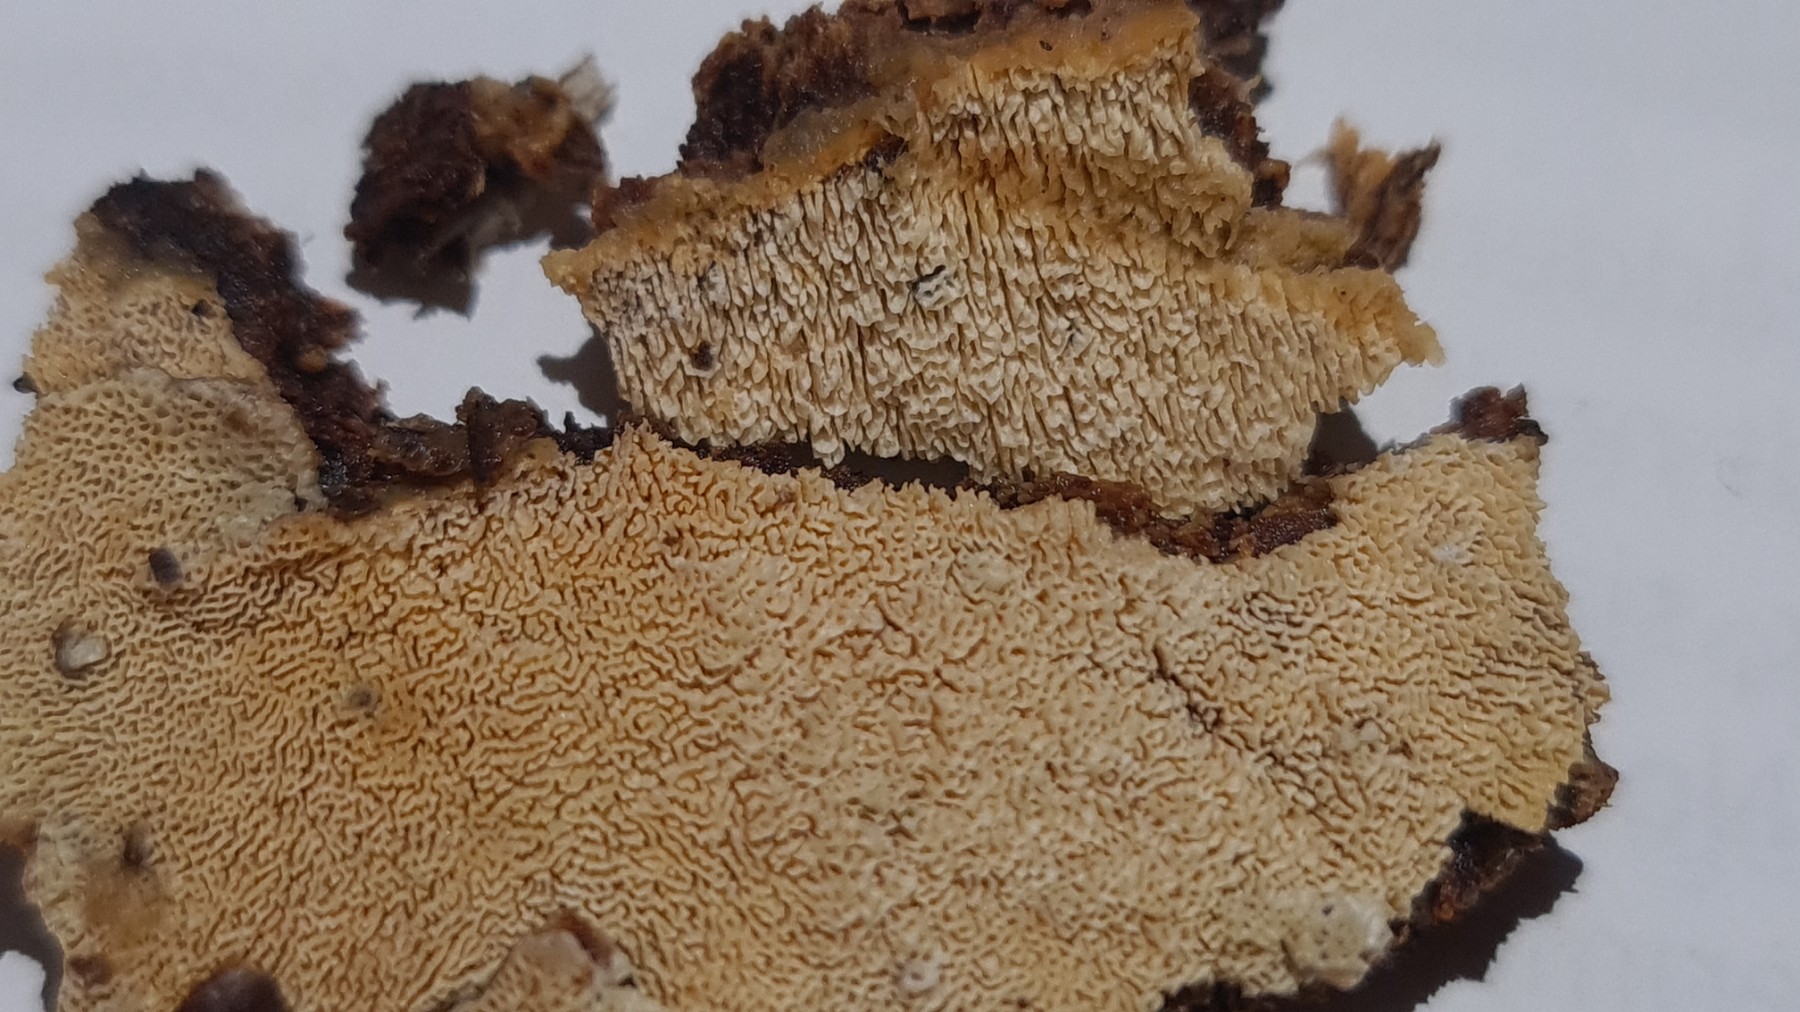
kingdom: Fungi
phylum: Basidiomycota
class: Agaricomycetes
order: Hymenochaetales
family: Schizoporaceae
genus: Xylodon
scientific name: Xylodon subtropicus
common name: labyrint-tandsvamp
